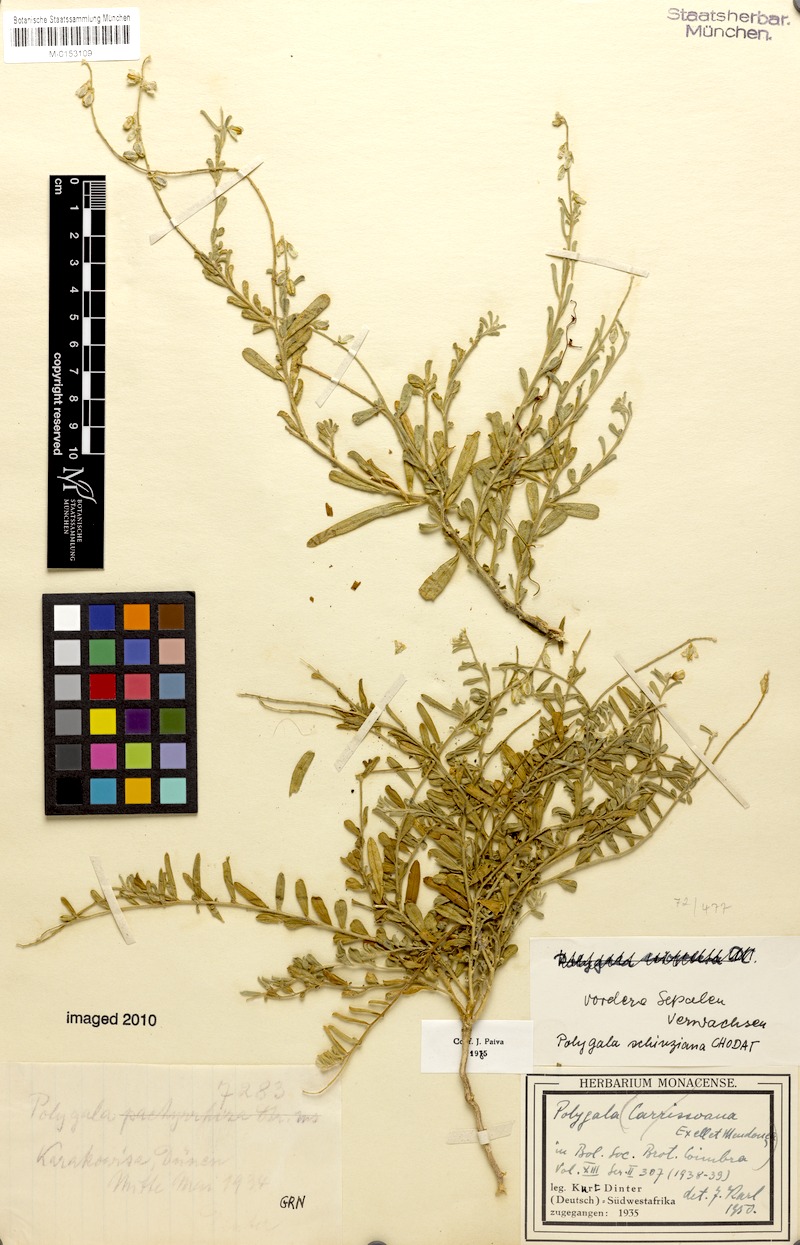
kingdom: Plantae
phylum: Tracheophyta
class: Magnoliopsida
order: Fabales
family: Polygalaceae
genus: Polygala
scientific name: Polygala carrissoana
